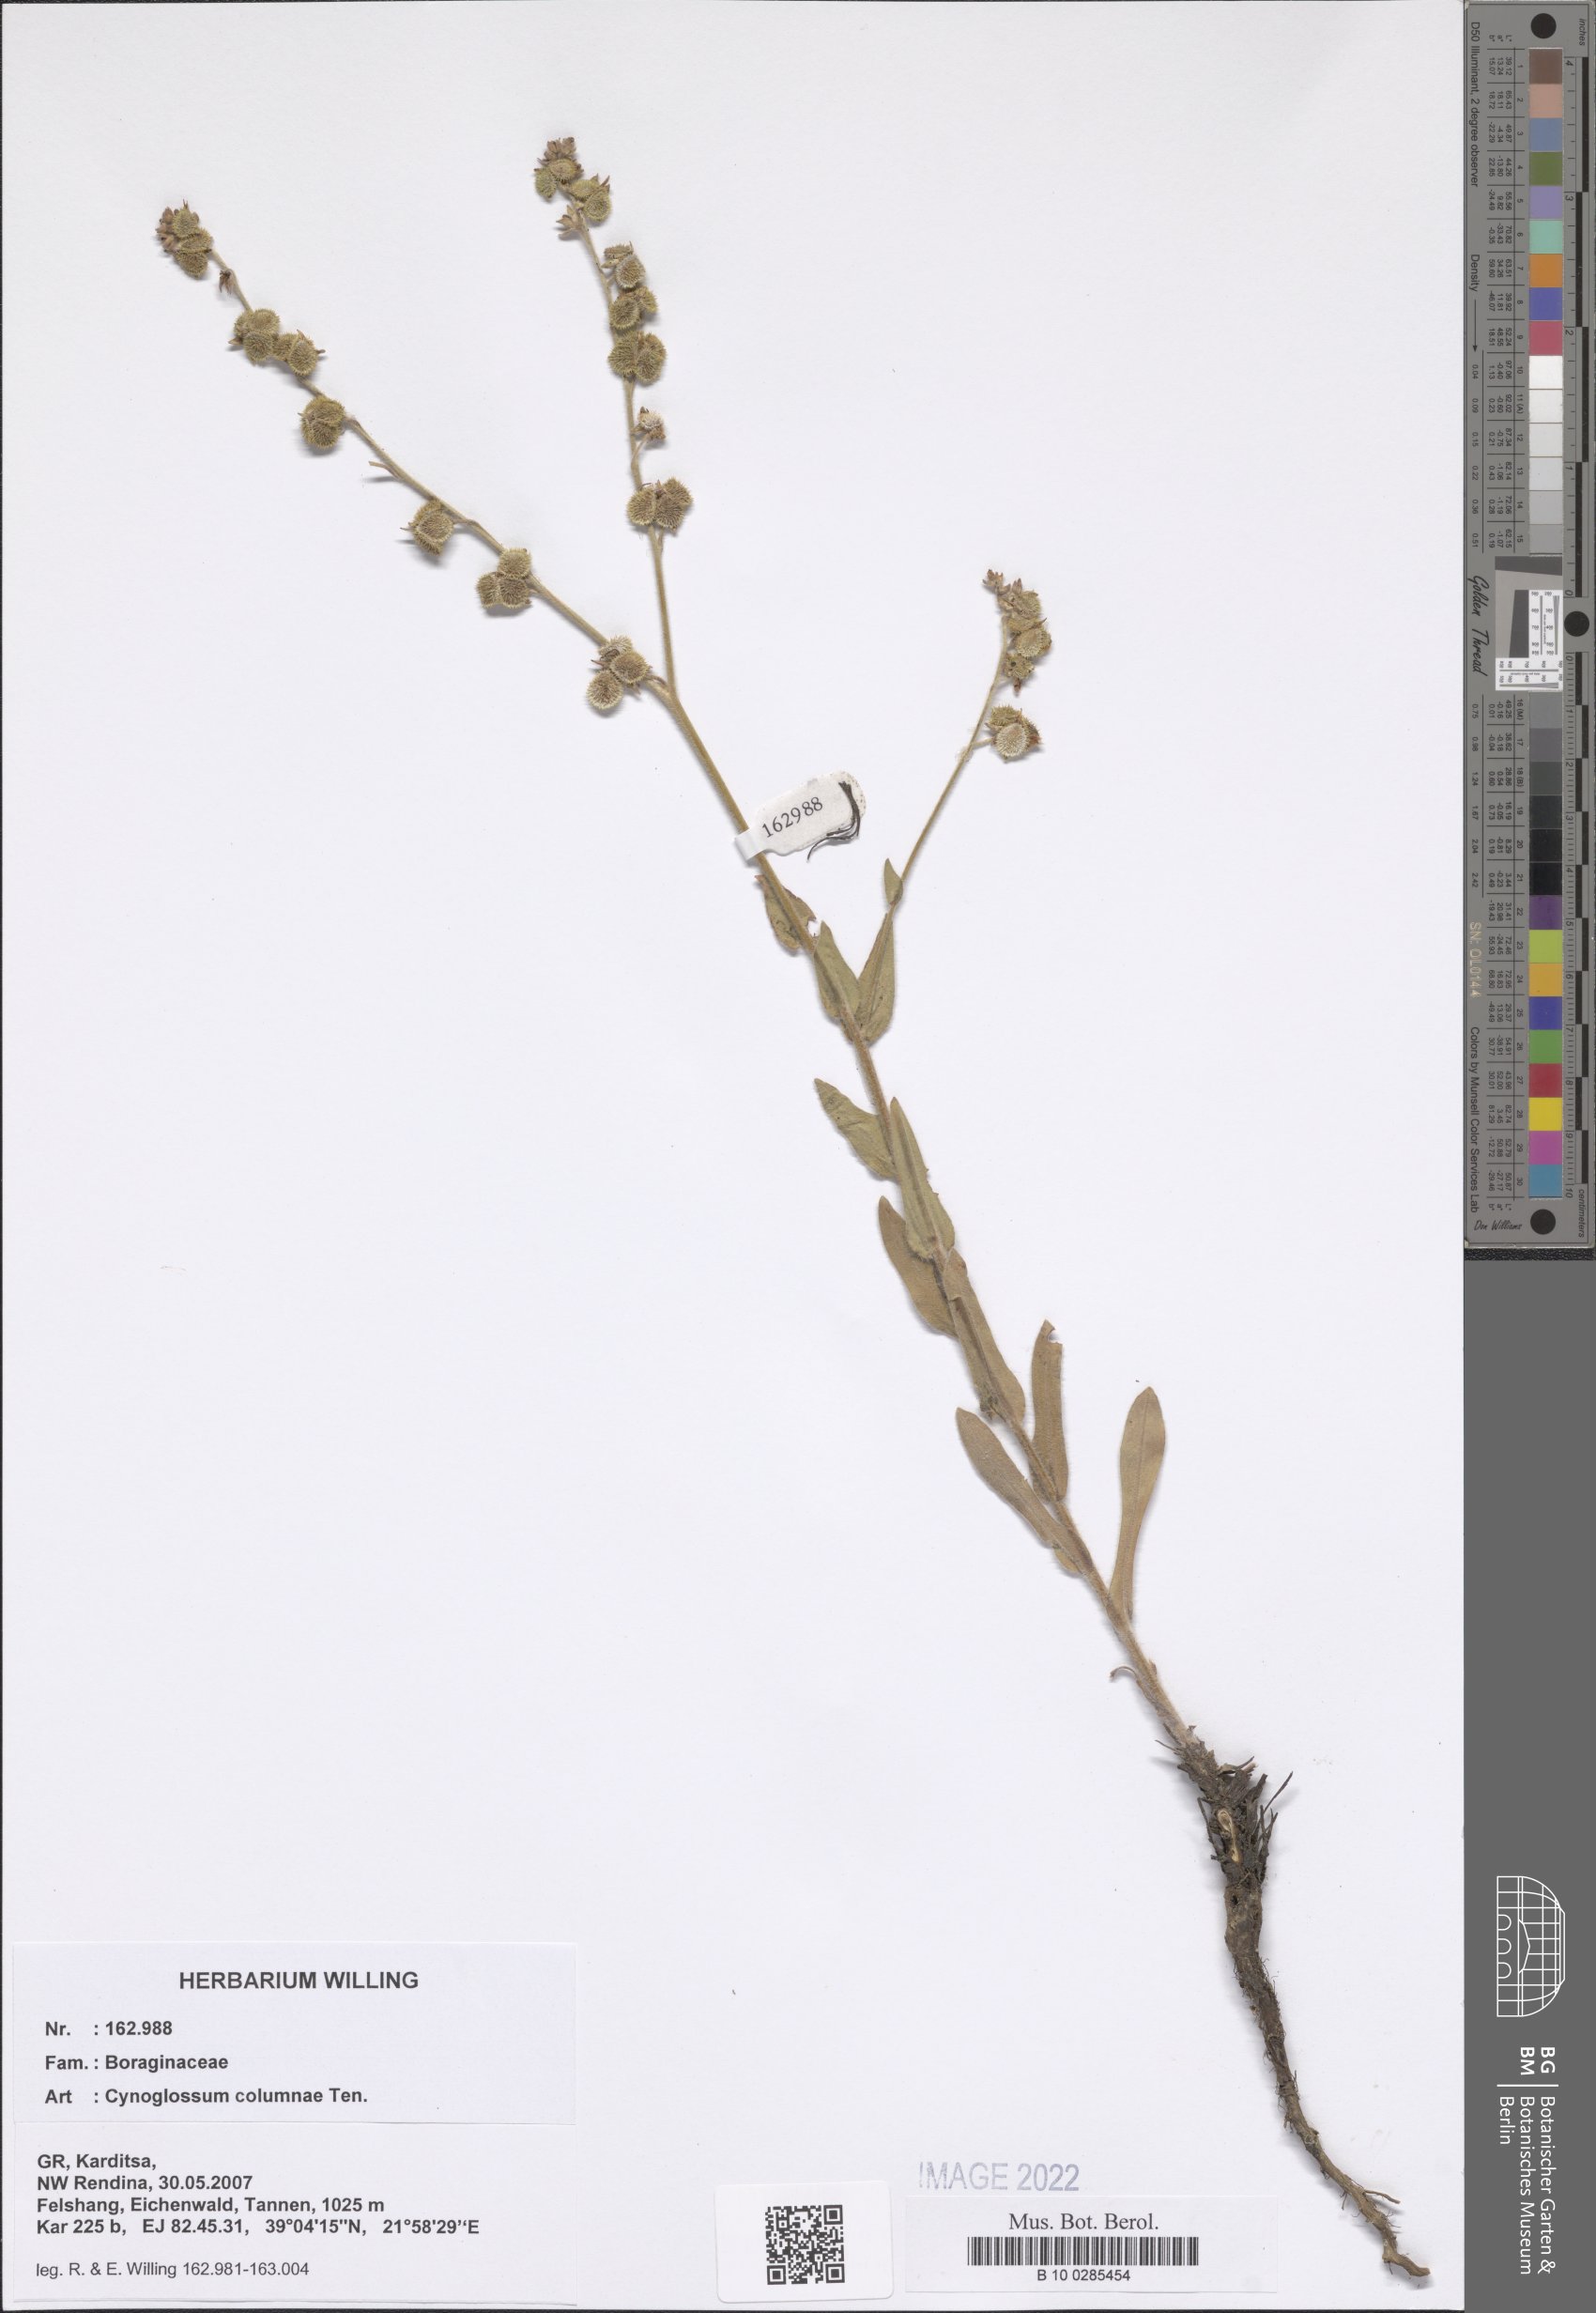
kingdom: Plantae
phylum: Tracheophyta
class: Magnoliopsida
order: Boraginales
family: Boraginaceae
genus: Rindera
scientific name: Rindera columnae
